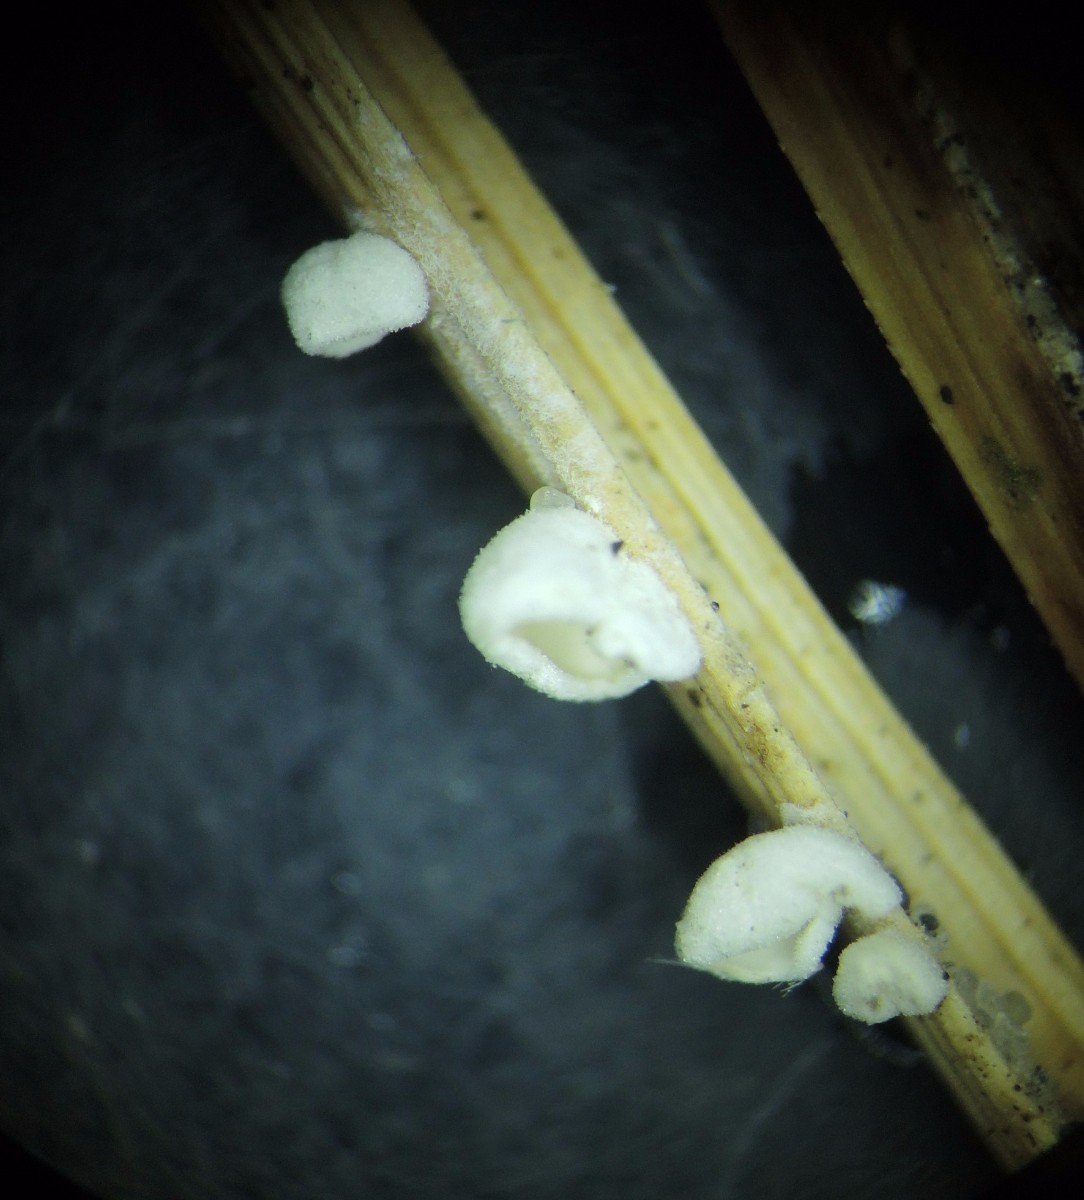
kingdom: Fungi
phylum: Basidiomycota
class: Agaricomycetes
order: Agaricales
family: Tricholomataceae
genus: Cellypha
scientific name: Cellypha goldbachii
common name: dråbeskål
